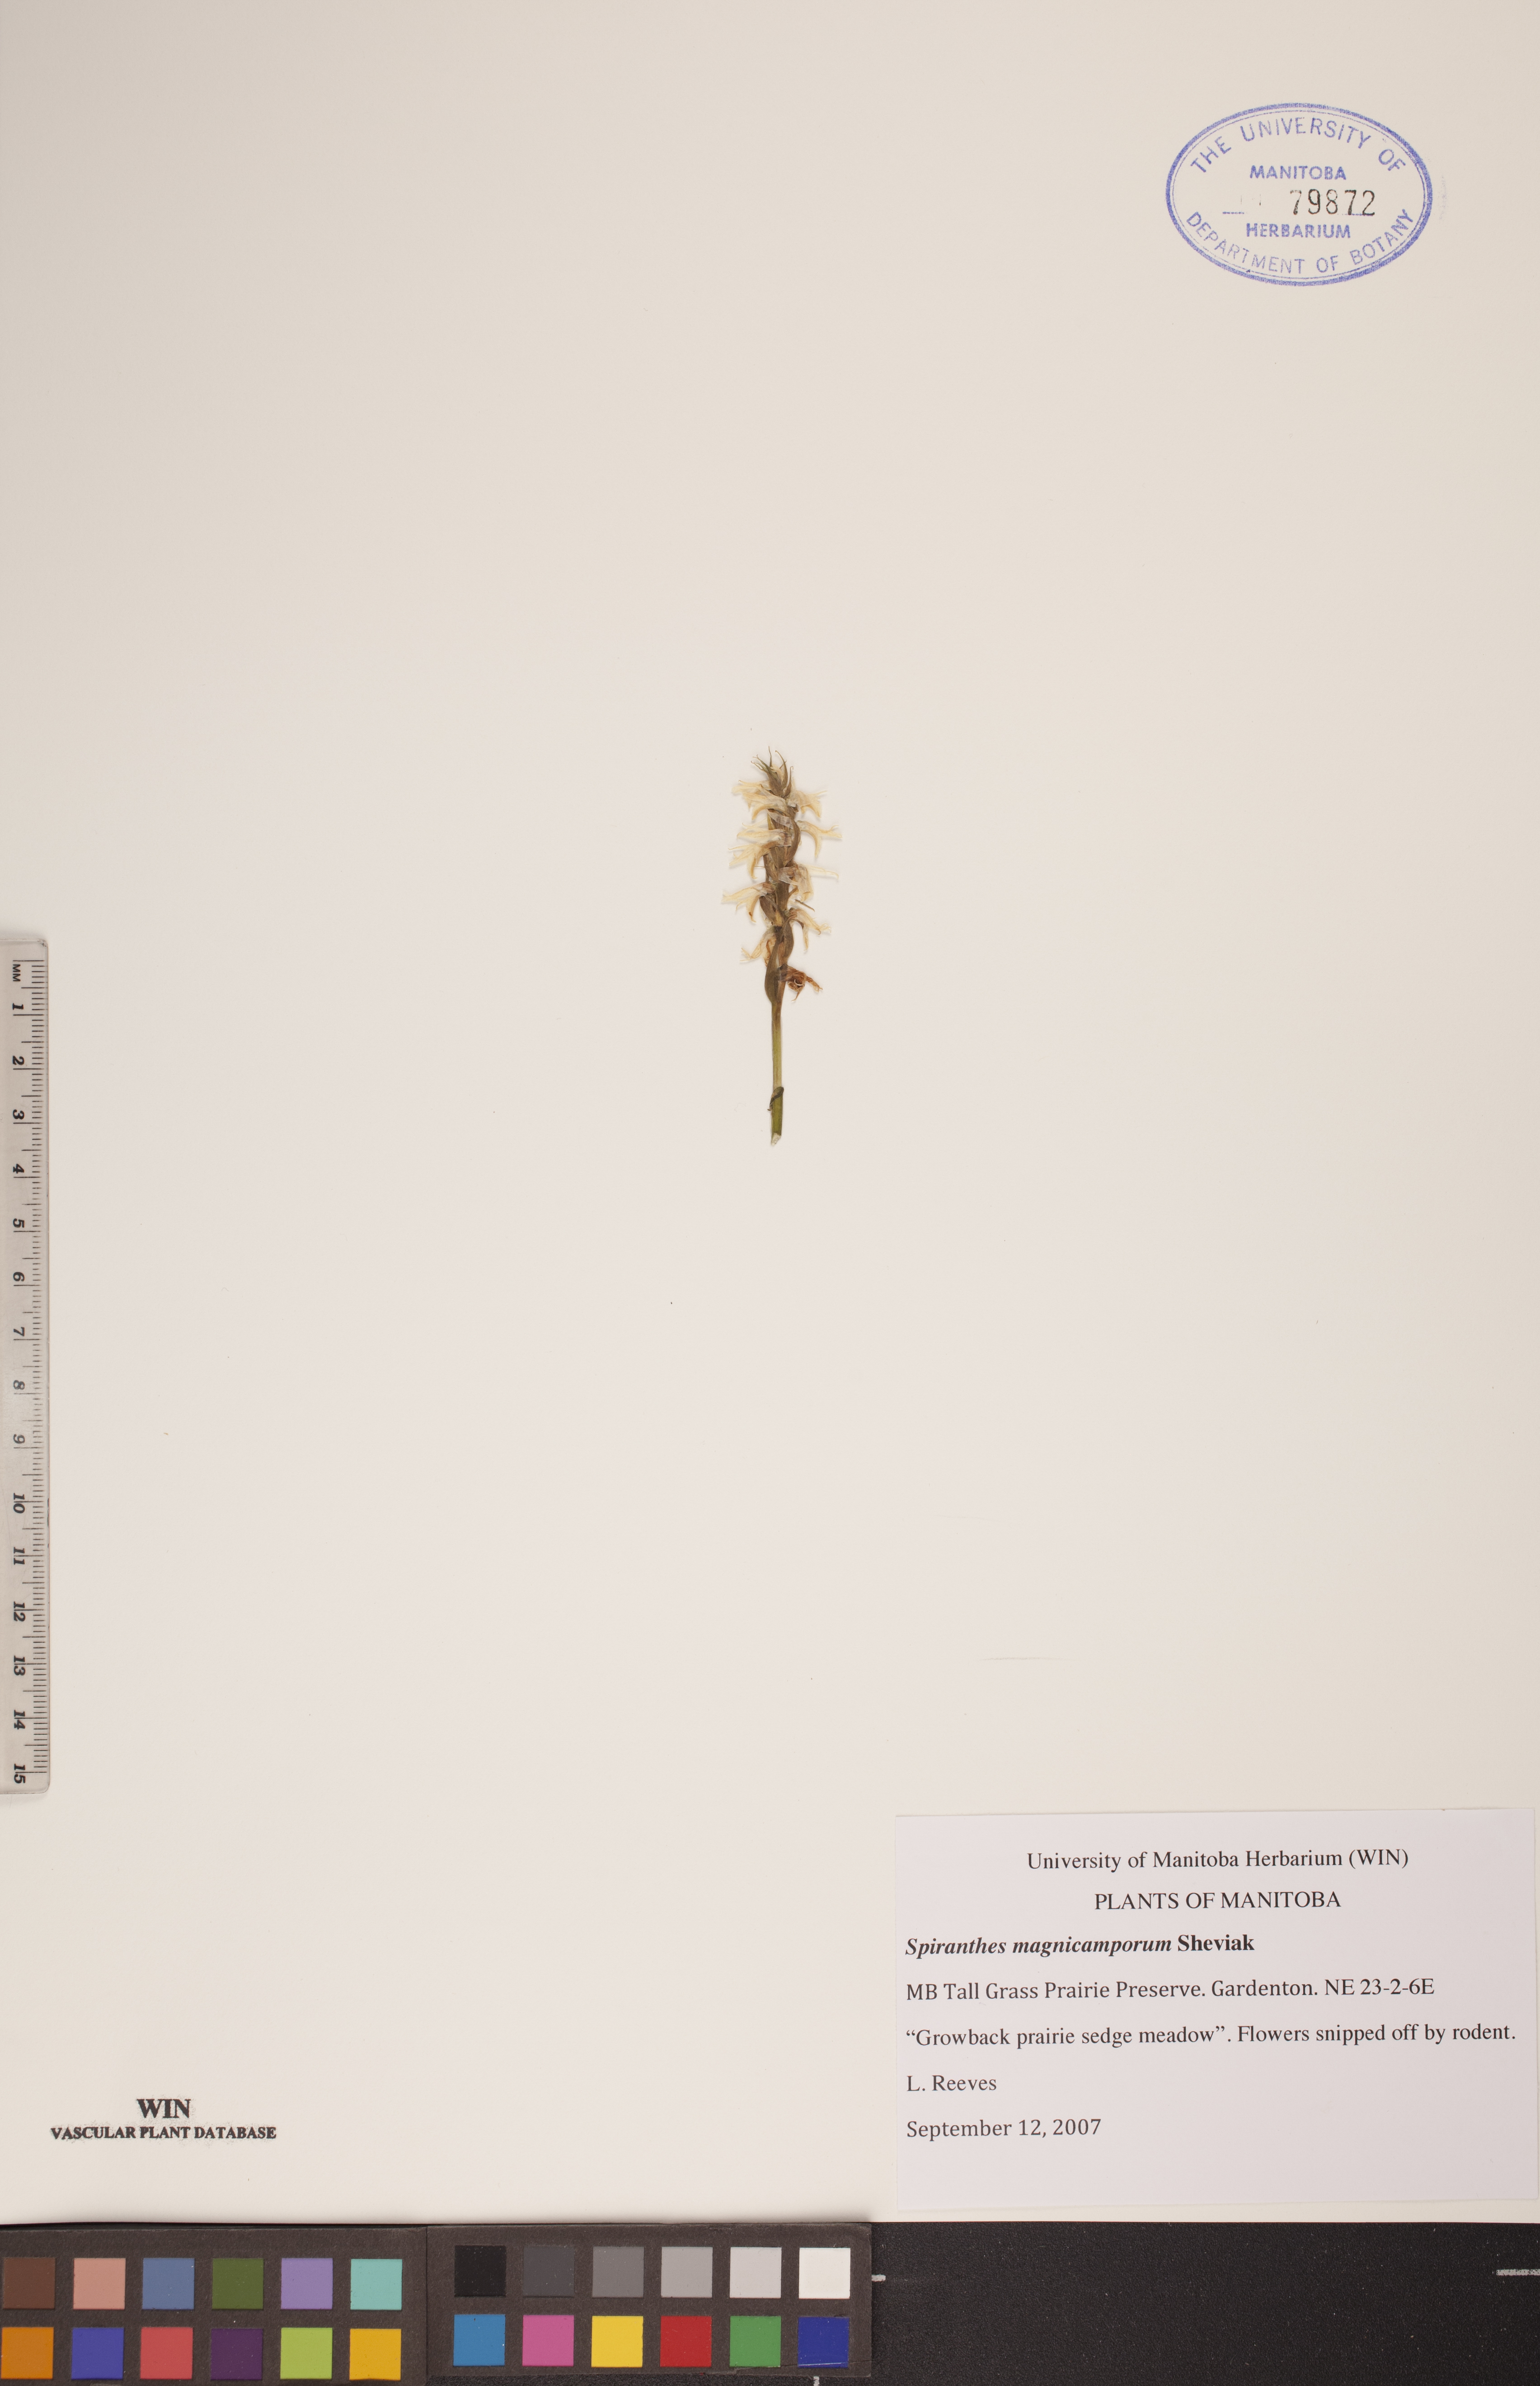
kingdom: Plantae
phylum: Tracheophyta
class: Liliopsida
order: Asparagales
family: Orchidaceae
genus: Spiranthes
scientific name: Spiranthes magnicamporum
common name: Great plains ladies'-tresses
